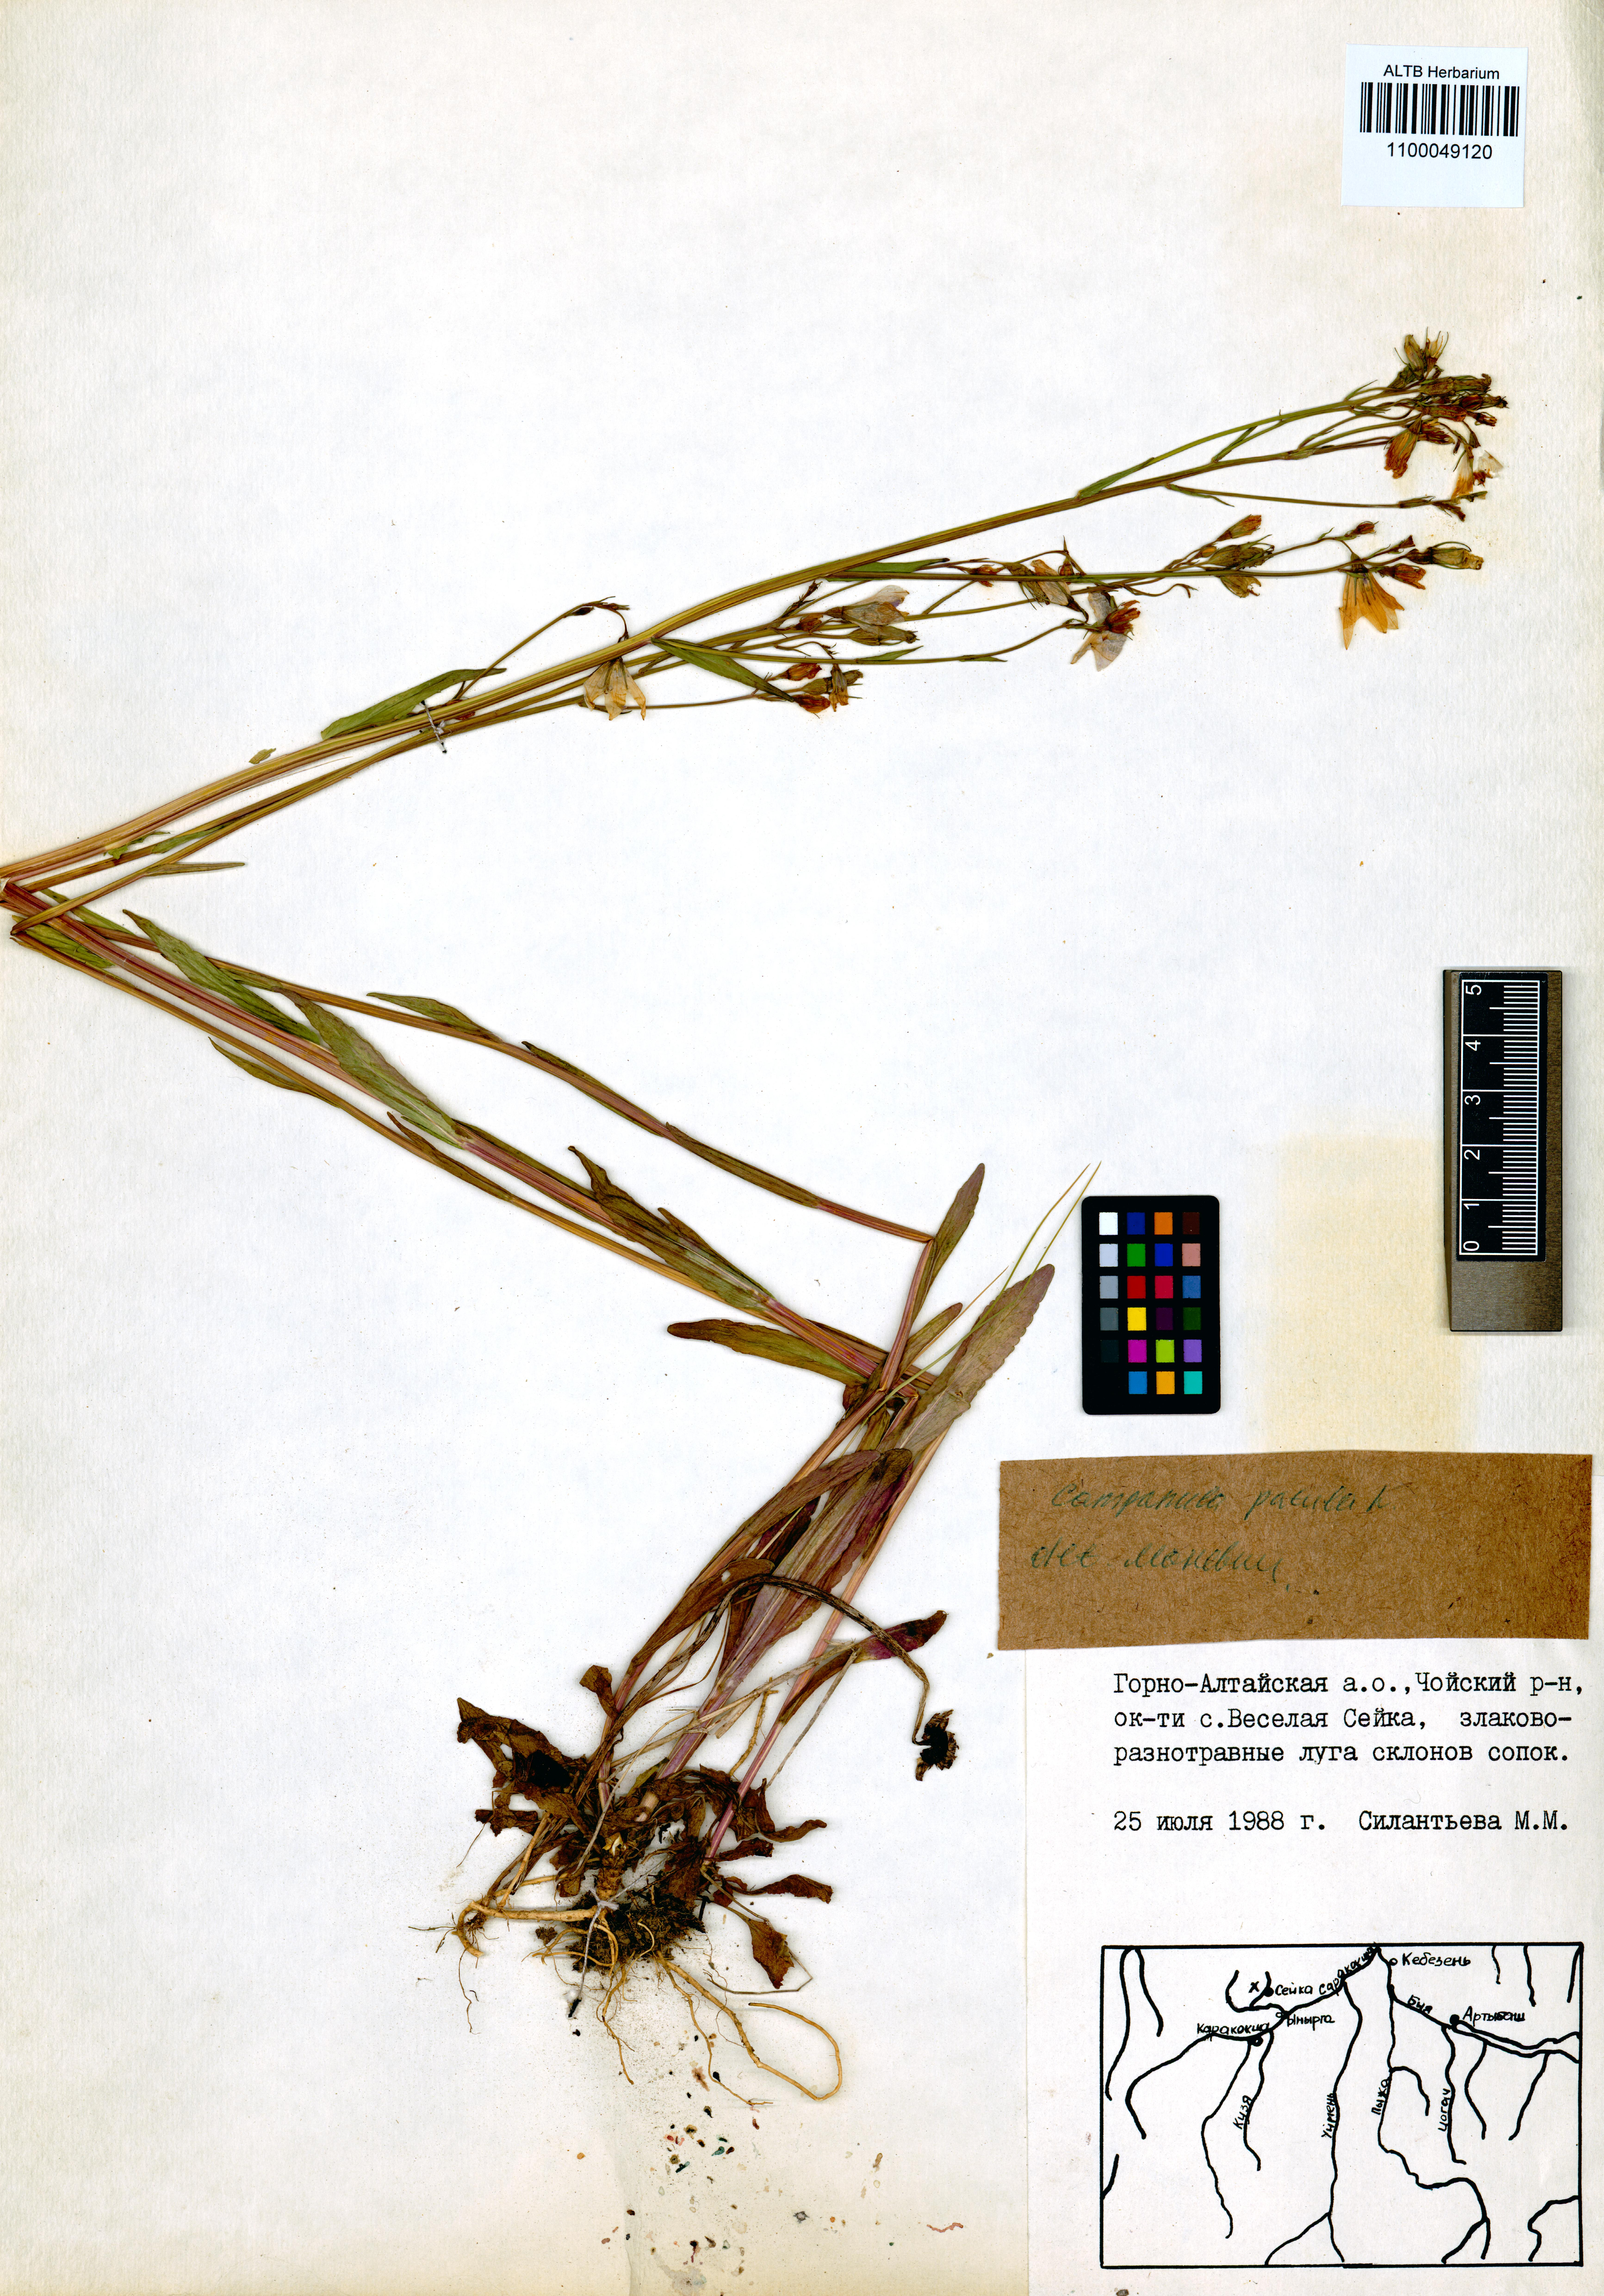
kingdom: Plantae
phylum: Tracheophyta
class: Magnoliopsida
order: Asterales
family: Campanulaceae
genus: Campanula
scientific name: Campanula patula
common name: Spreading bellflower
